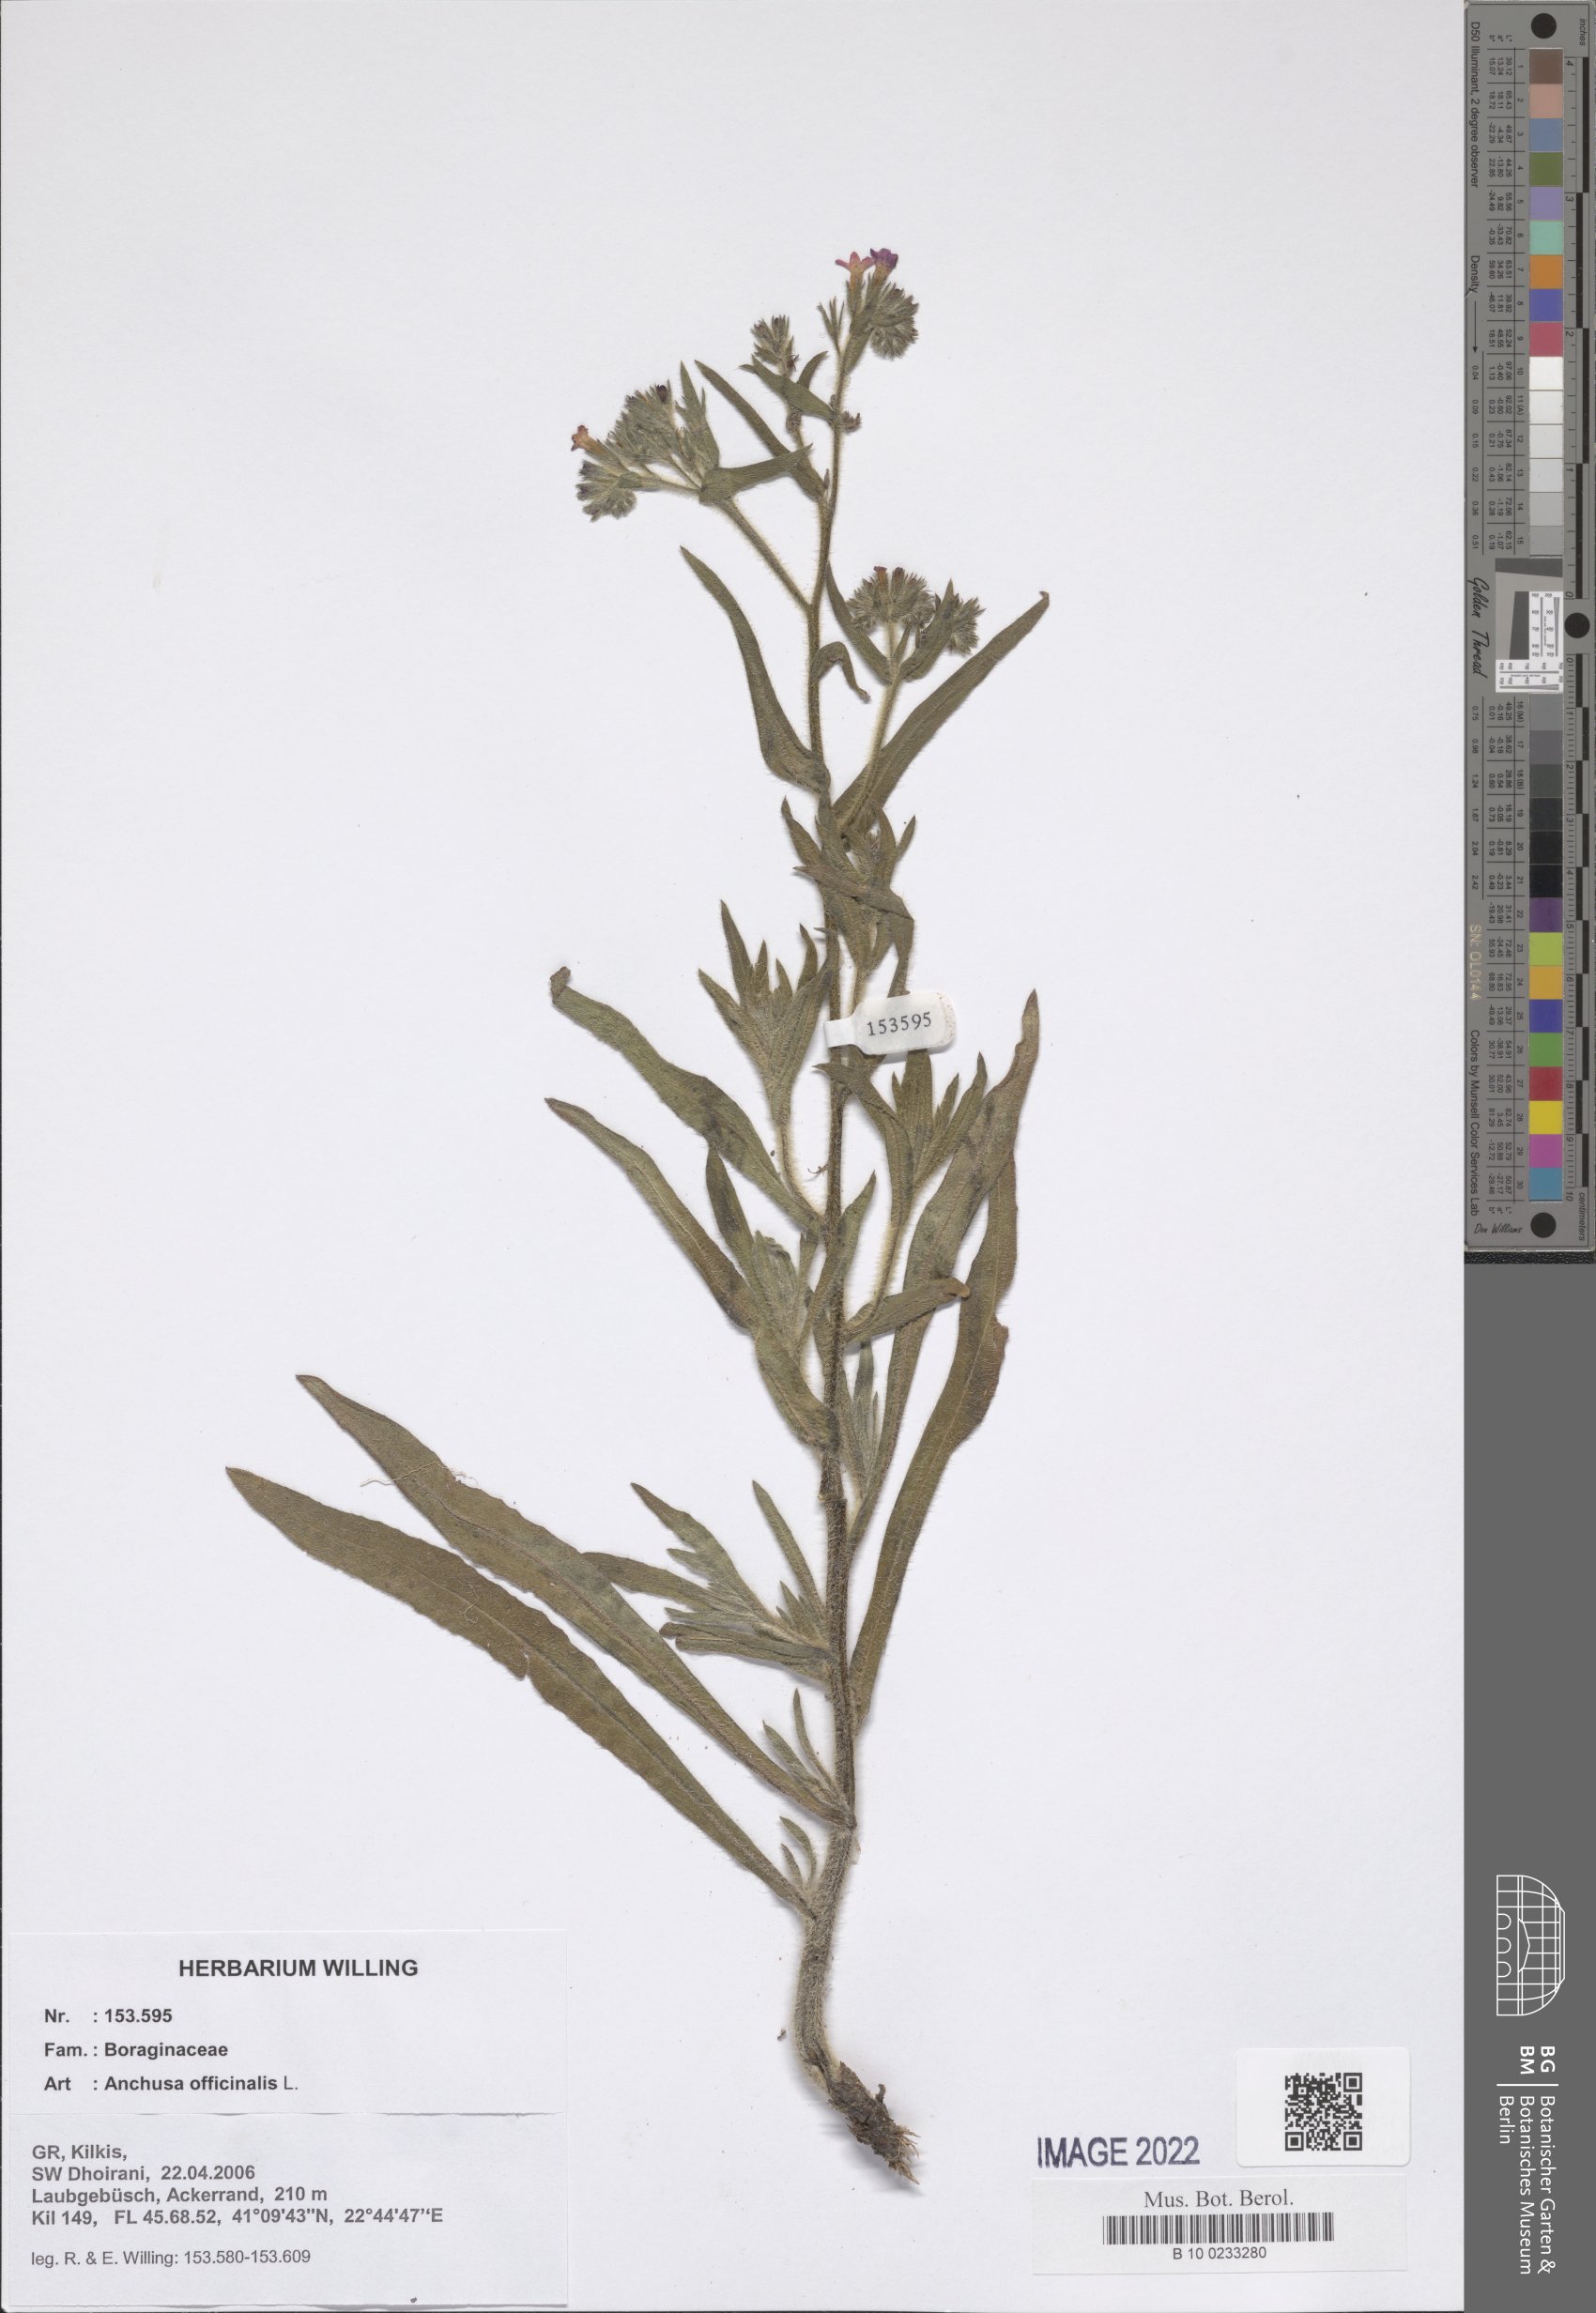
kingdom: Plantae
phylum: Tracheophyta
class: Magnoliopsida
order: Boraginales
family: Boraginaceae
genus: Anchusa
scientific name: Anchusa officinalis
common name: Alkanet
